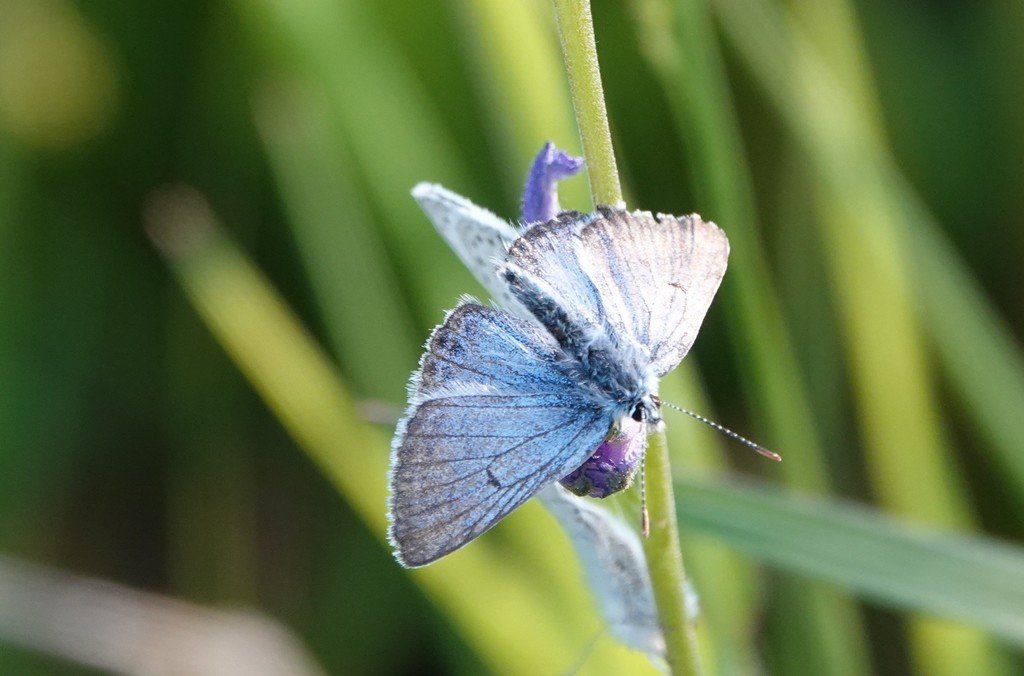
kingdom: Animalia
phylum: Arthropoda
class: Insecta
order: Lepidoptera
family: Lycaenidae
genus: Plebejus
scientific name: Plebejus saepiolus
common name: Greenish Blue
